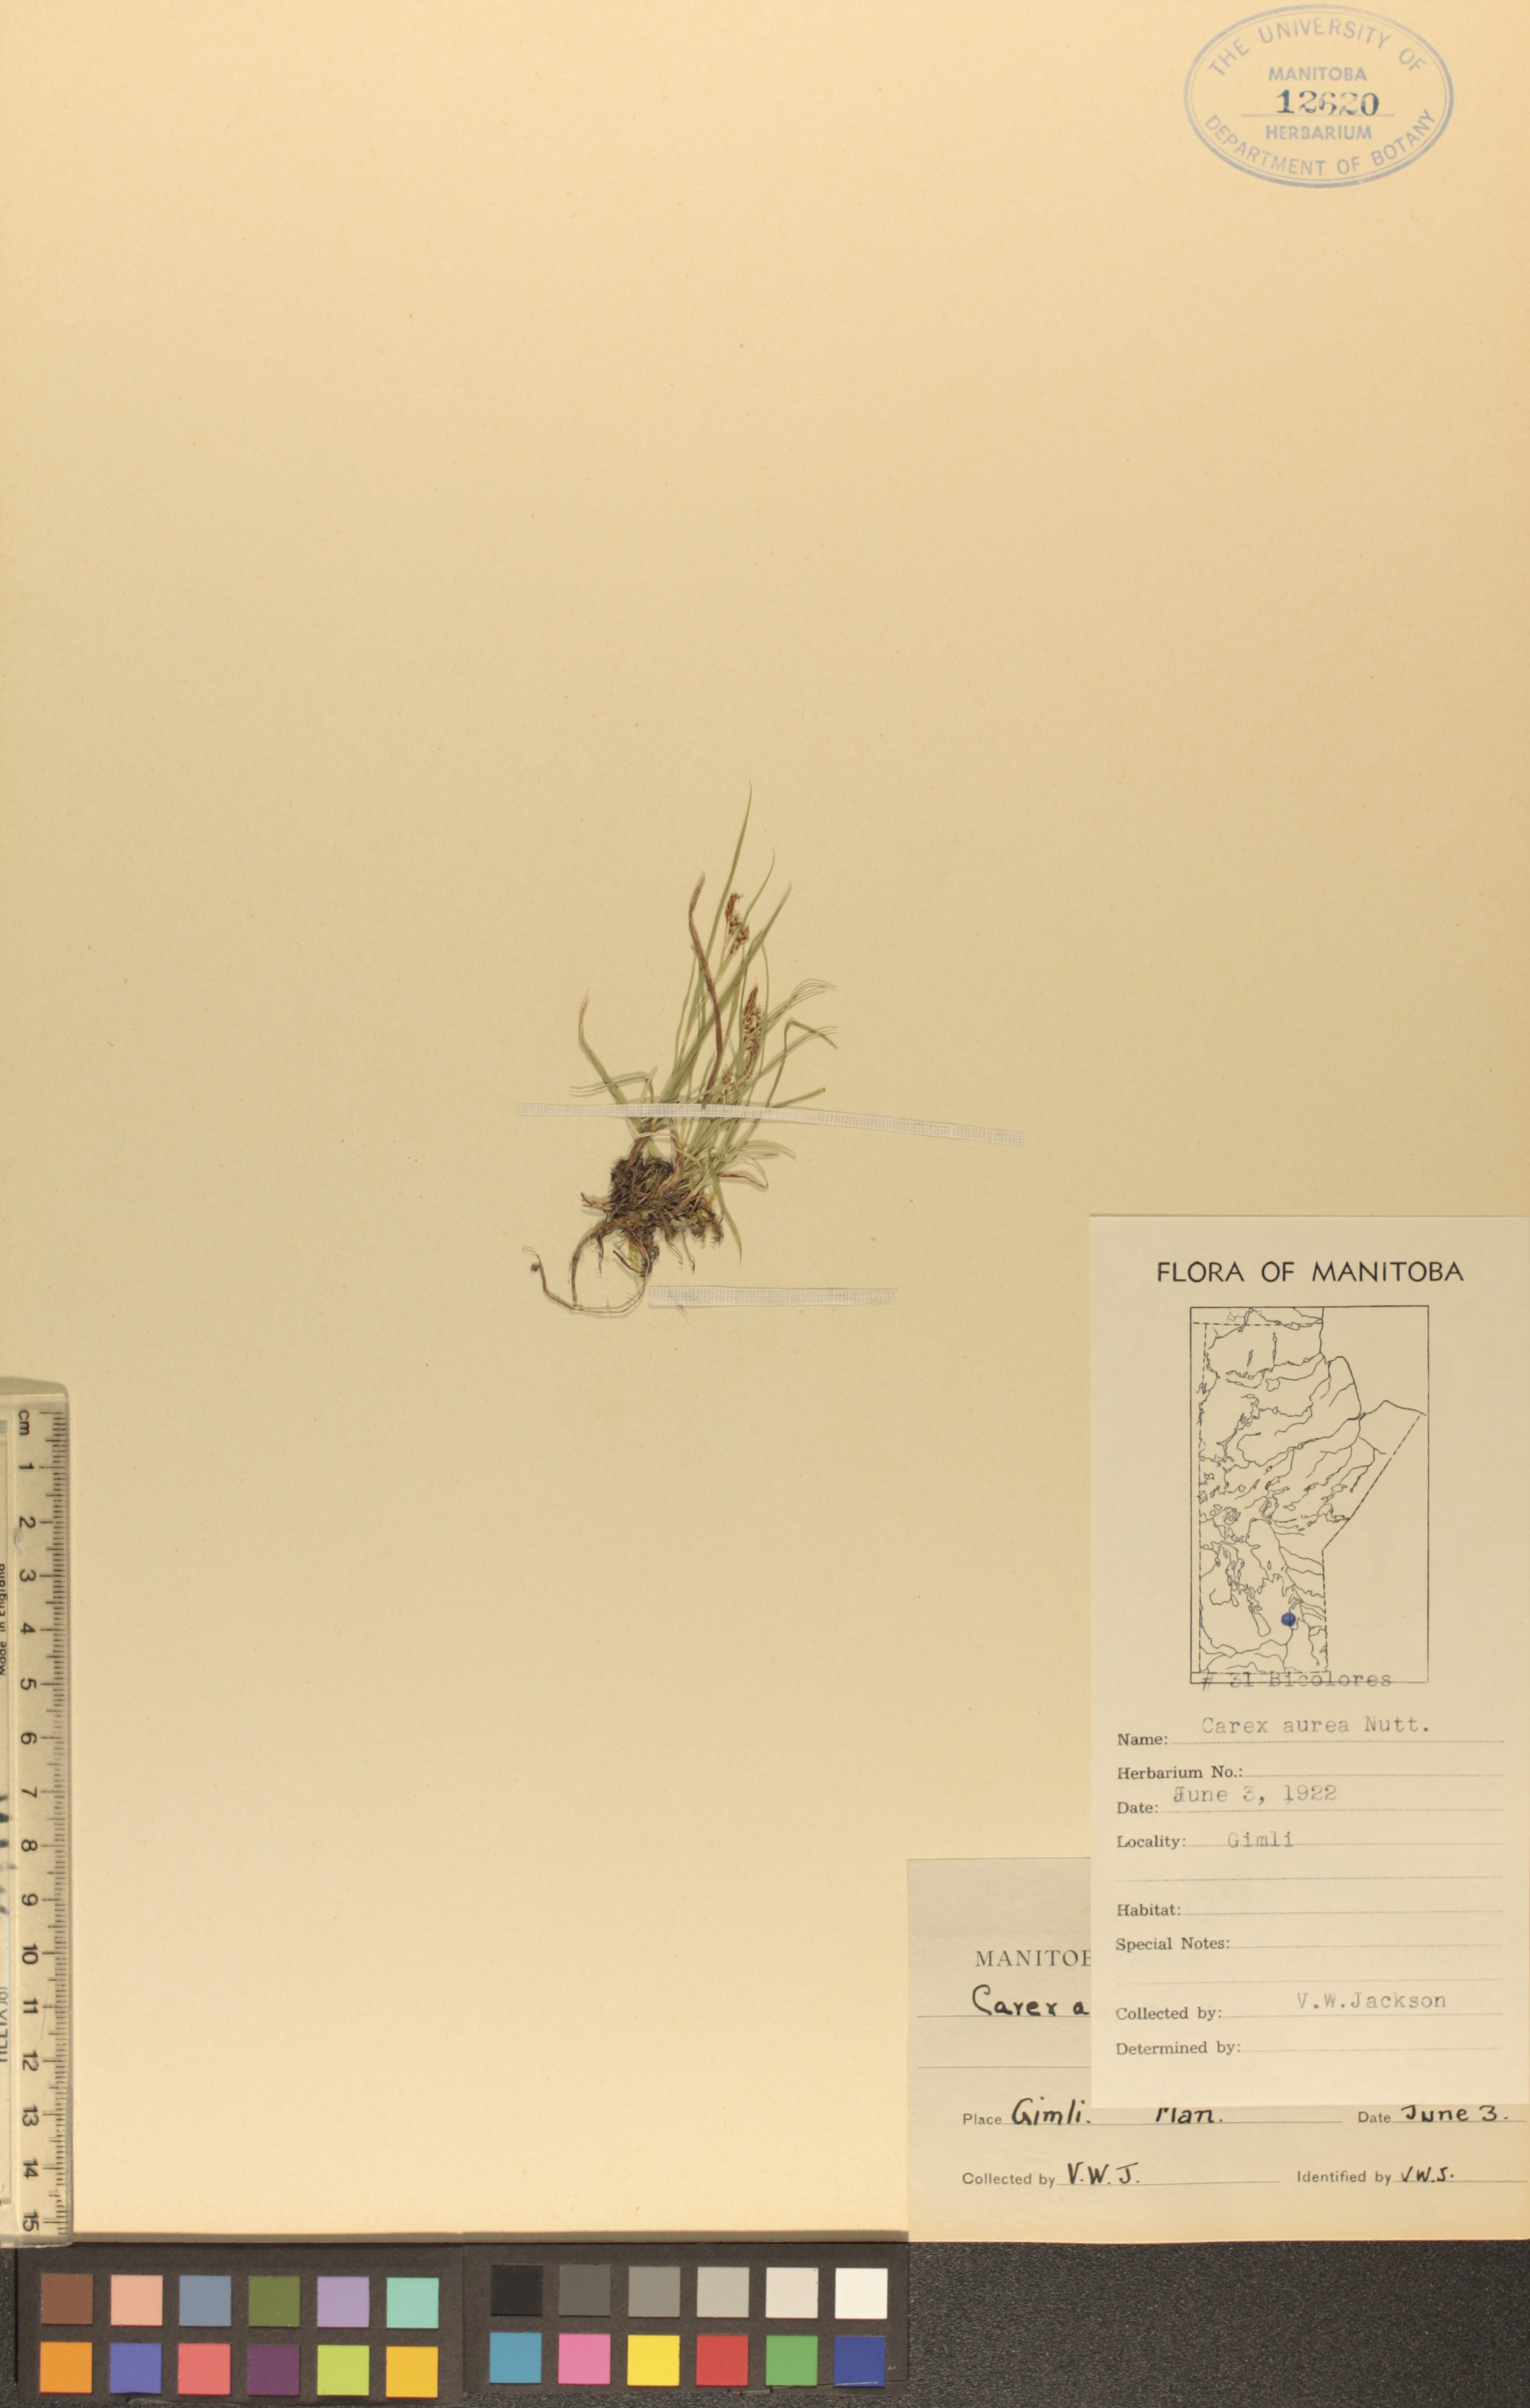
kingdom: Plantae
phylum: Tracheophyta
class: Liliopsida
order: Poales
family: Cyperaceae
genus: Carex
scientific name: Carex aurea
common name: Golden sedge
